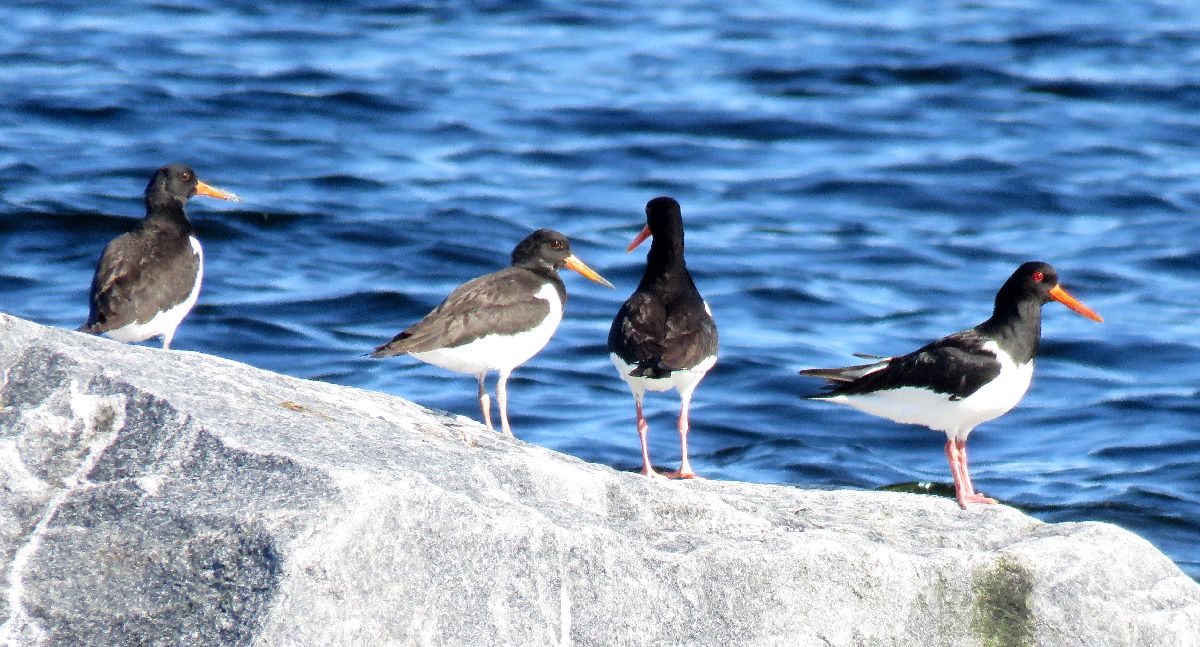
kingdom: Animalia
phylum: Chordata
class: Aves
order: Charadriiformes
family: Haematopodidae
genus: Haematopus
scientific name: Haematopus ostralegus
